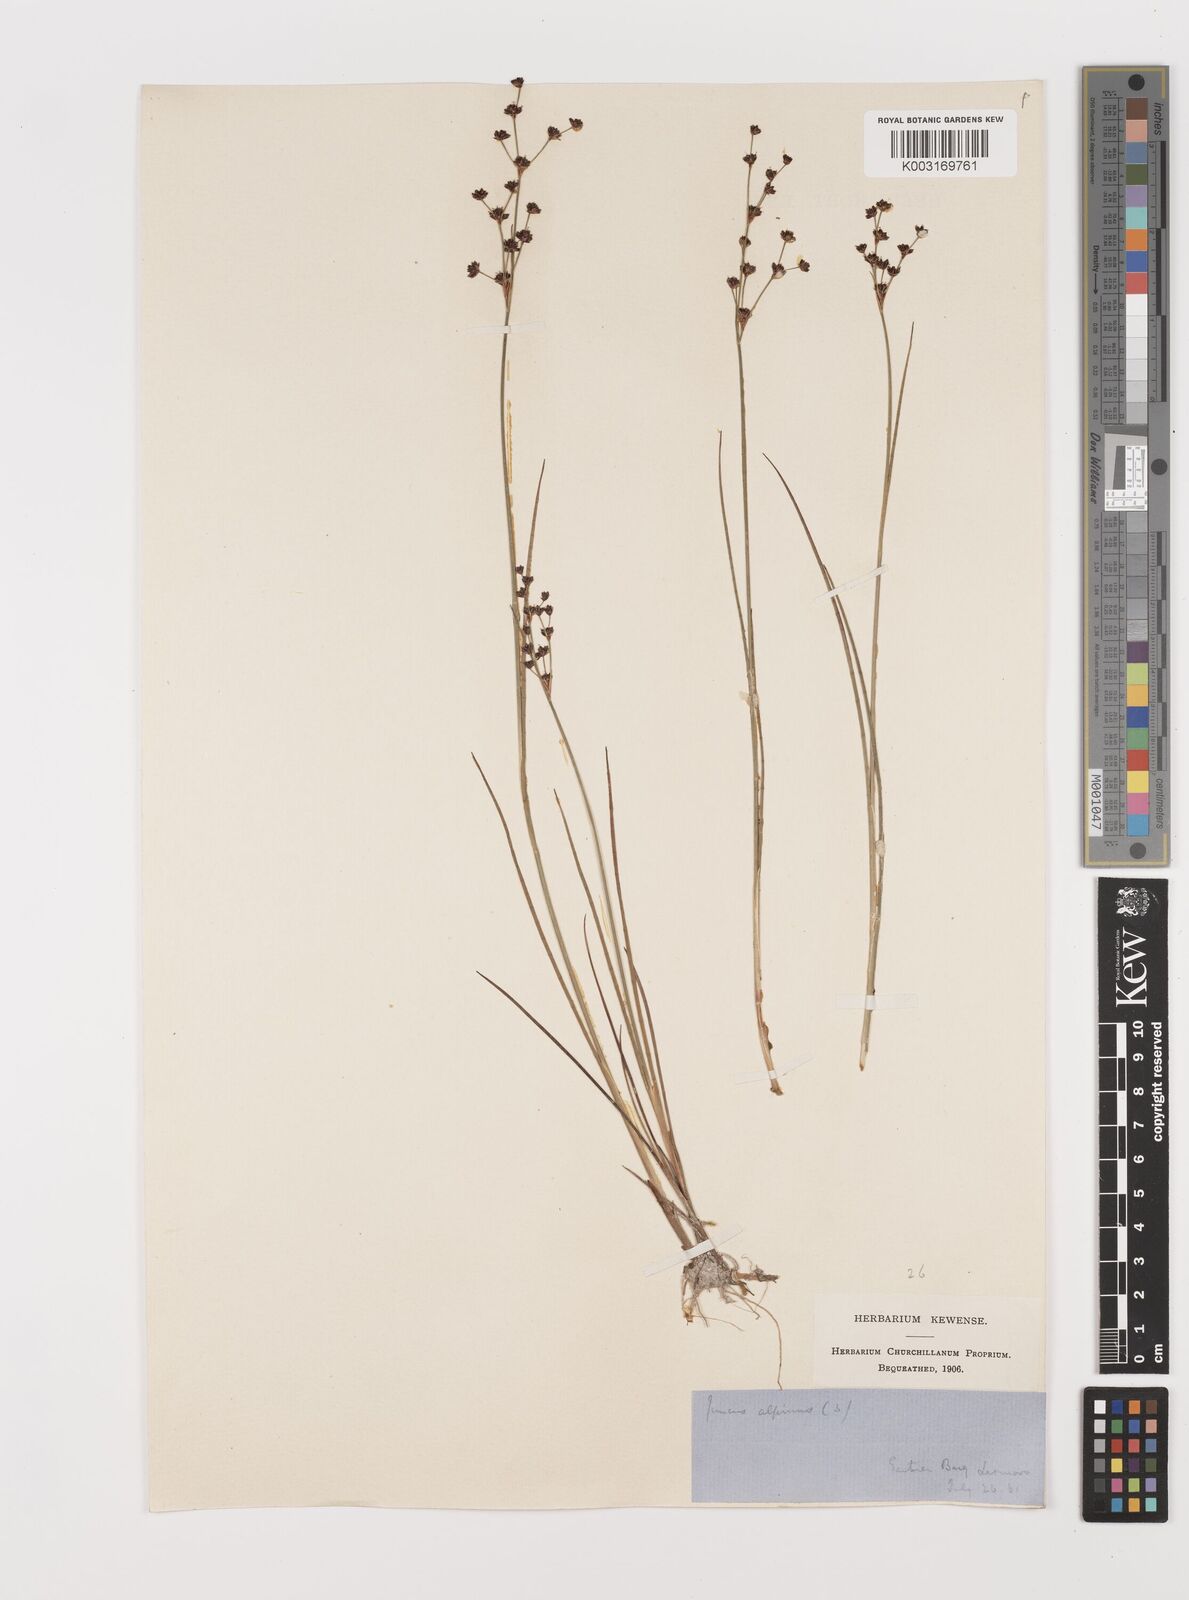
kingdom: Plantae
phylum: Tracheophyta
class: Liliopsida
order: Poales
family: Juncaceae
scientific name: Juncaceae
